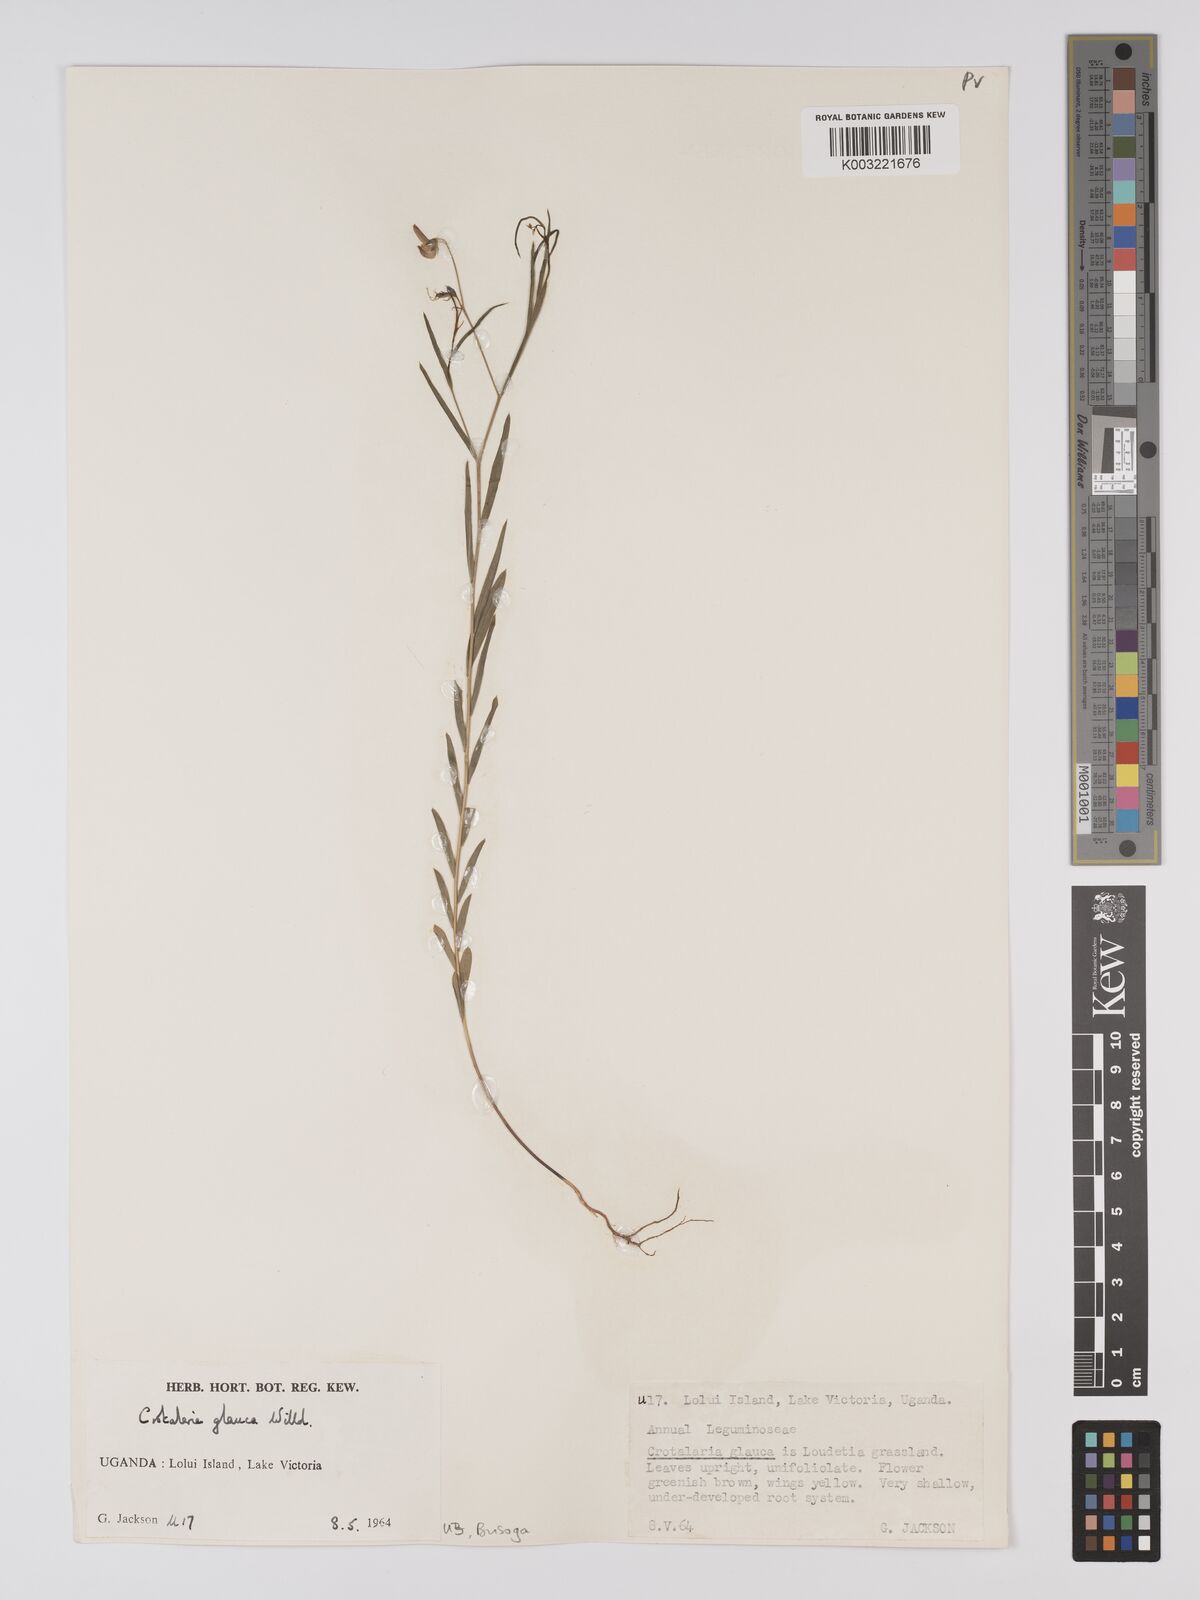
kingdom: Plantae
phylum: Tracheophyta
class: Magnoliopsida
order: Fabales
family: Fabaceae
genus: Crotalaria
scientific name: Crotalaria glauca
